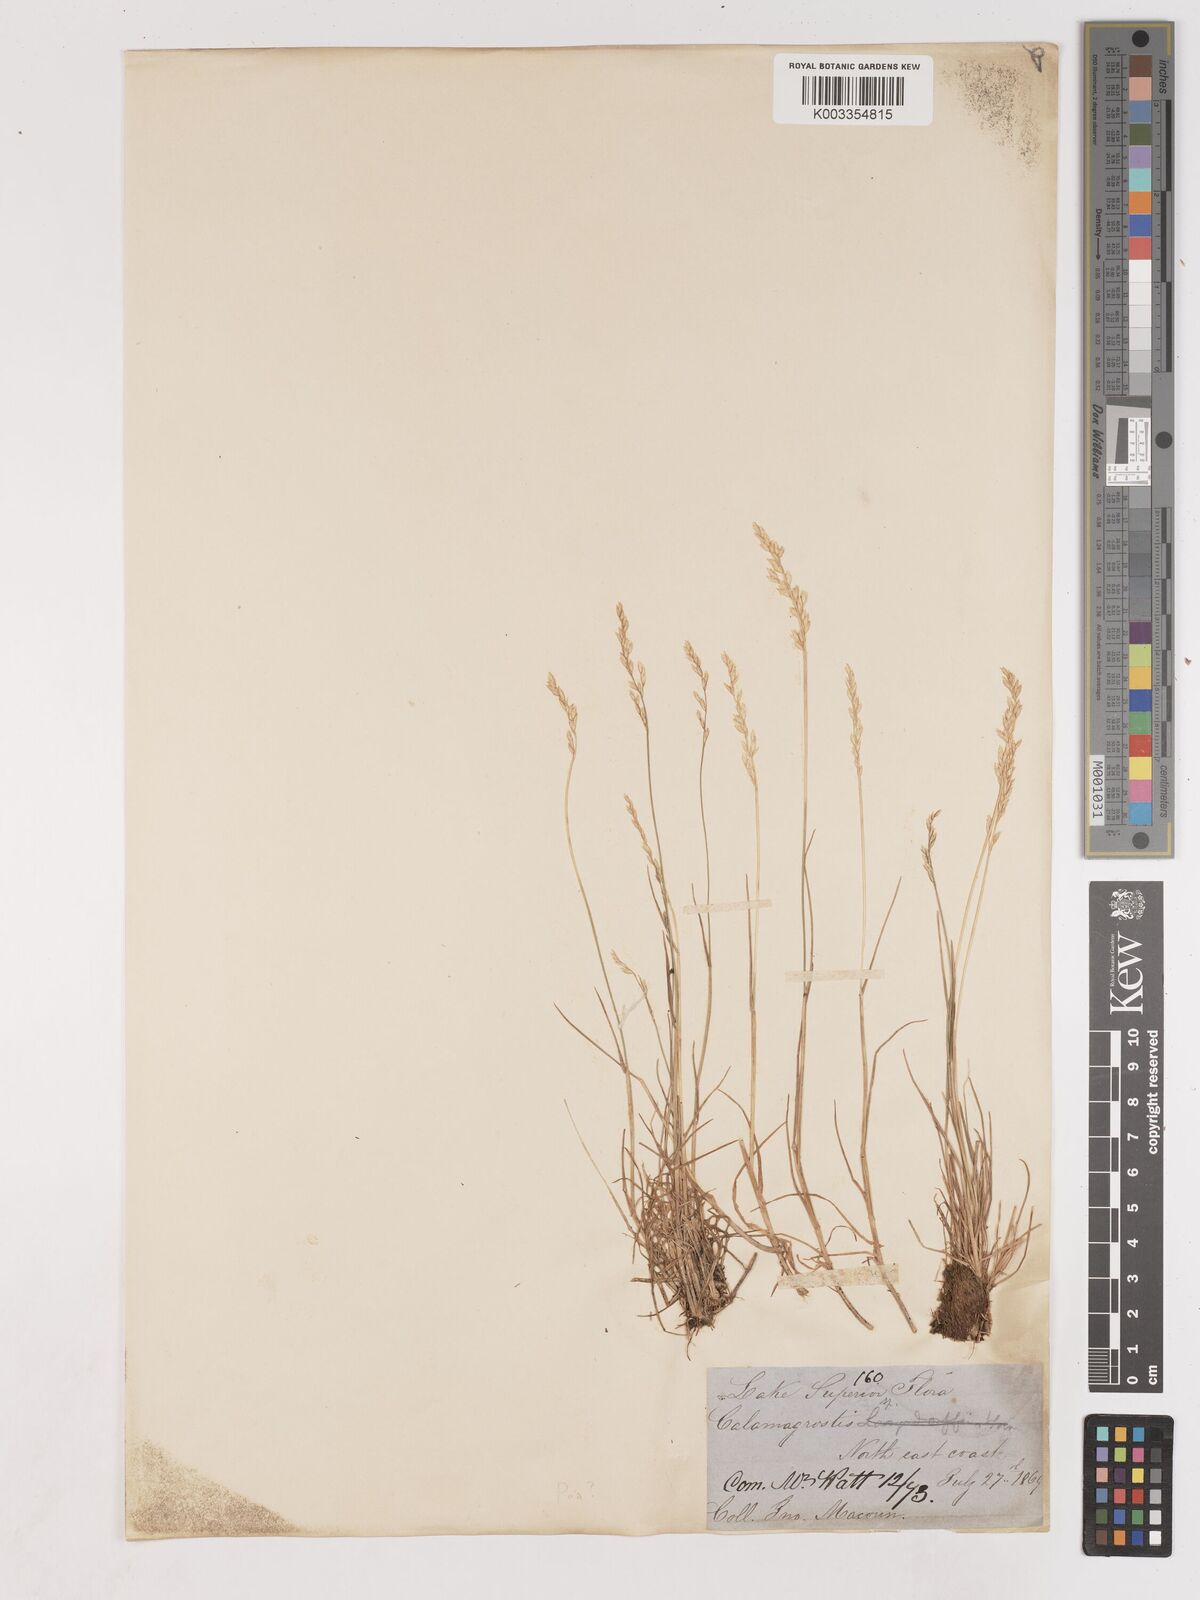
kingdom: Plantae
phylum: Tracheophyta
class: Liliopsida
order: Poales
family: Poaceae
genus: Calamagrostis
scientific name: Calamagrostis
